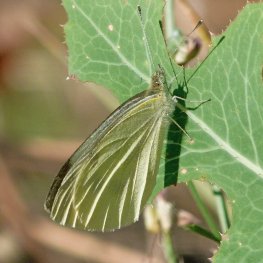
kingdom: Animalia
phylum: Arthropoda
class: Insecta
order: Lepidoptera
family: Pieridae
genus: Pieris
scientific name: Pieris rapae
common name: Cabbage White
